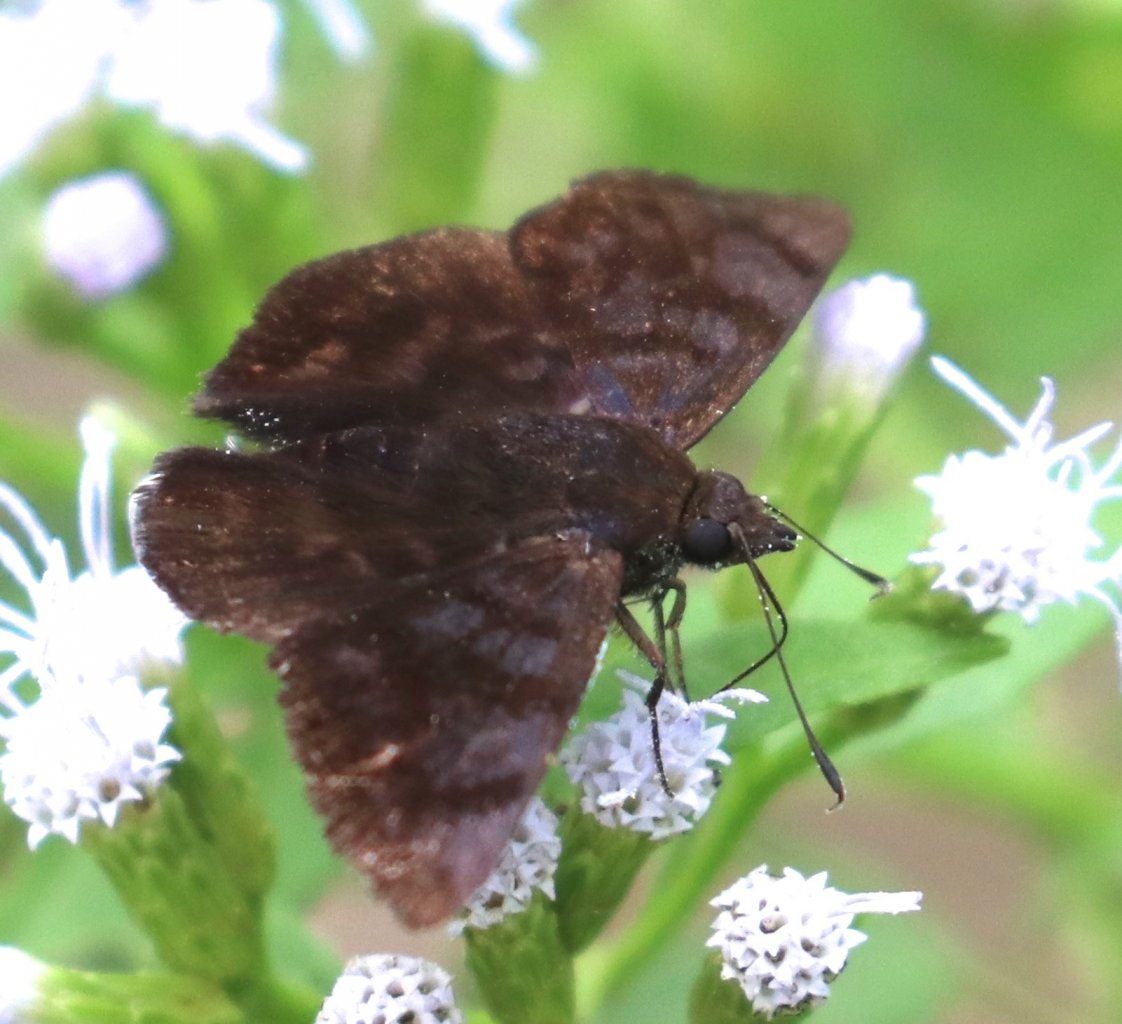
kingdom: Animalia
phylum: Arthropoda
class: Insecta
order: Lepidoptera
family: Hesperiidae
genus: Pellicia
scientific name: Pellicia costimacula
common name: Glazed Pellicia
